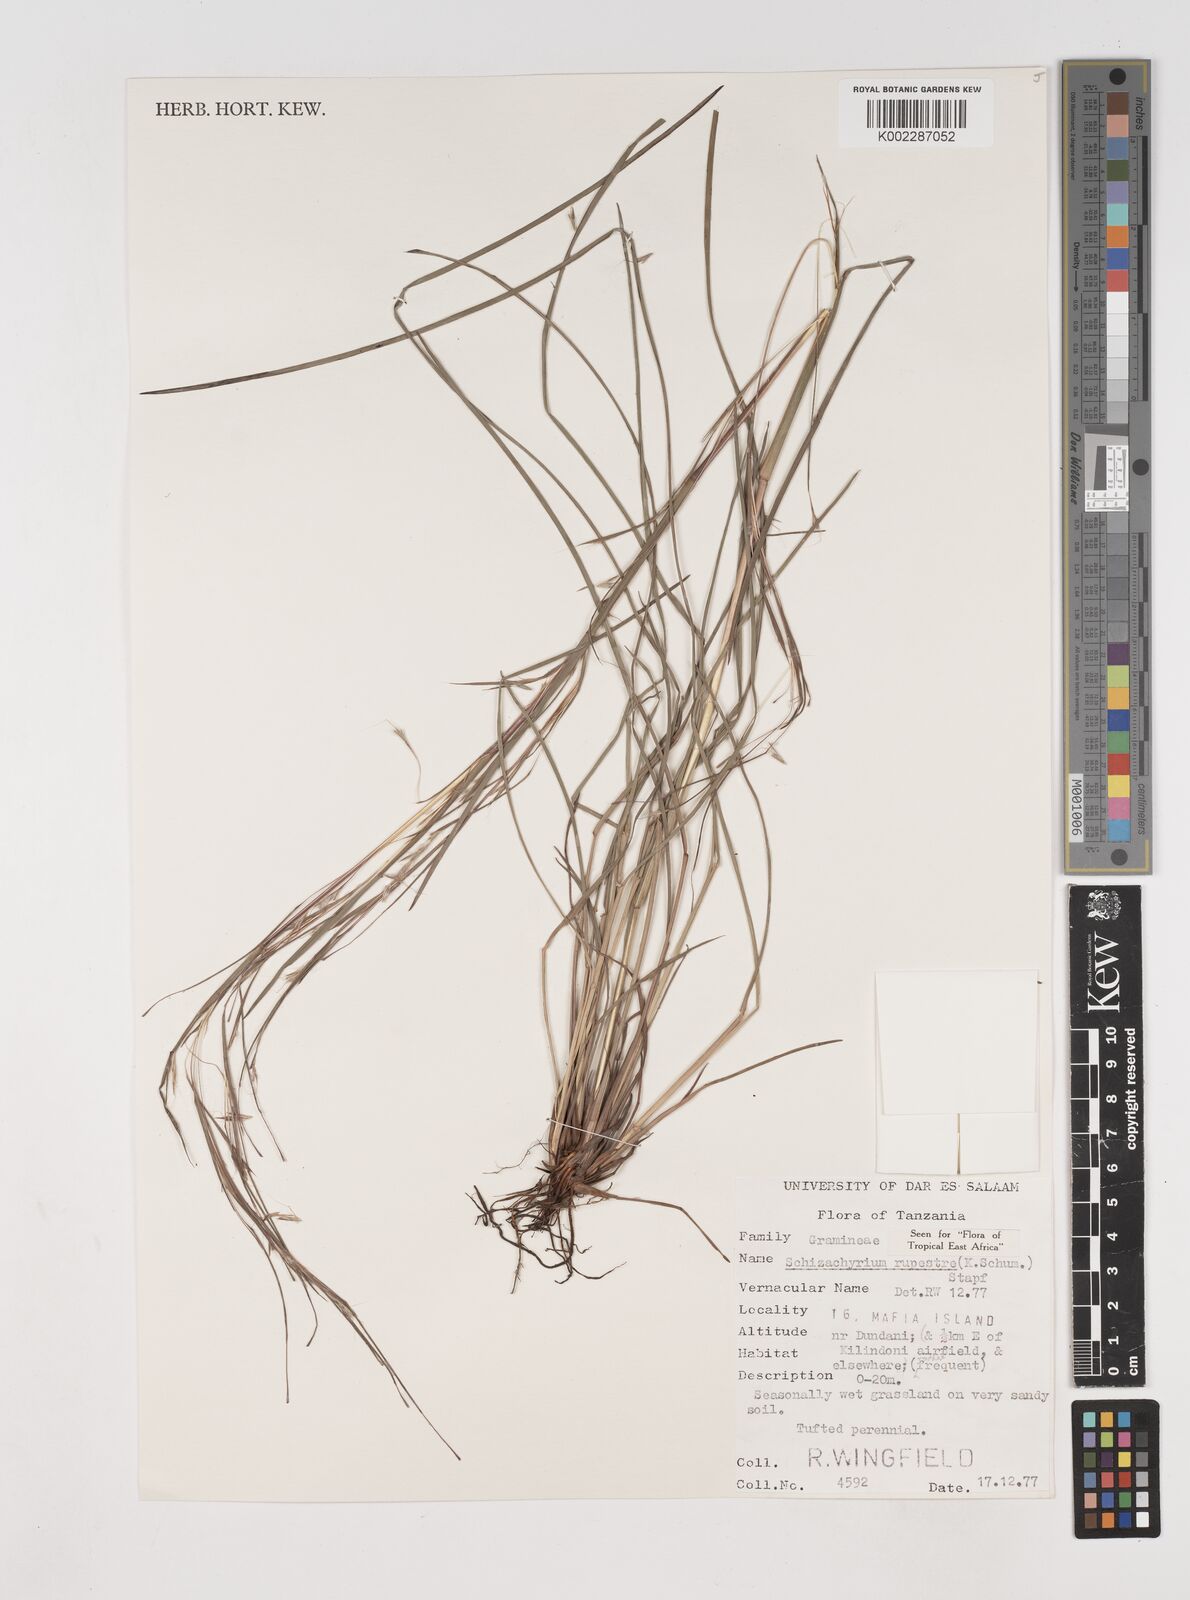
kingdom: Plantae
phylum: Tracheophyta
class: Liliopsida
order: Poales
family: Poaceae
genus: Andropogon
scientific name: Andropogon rupestris
